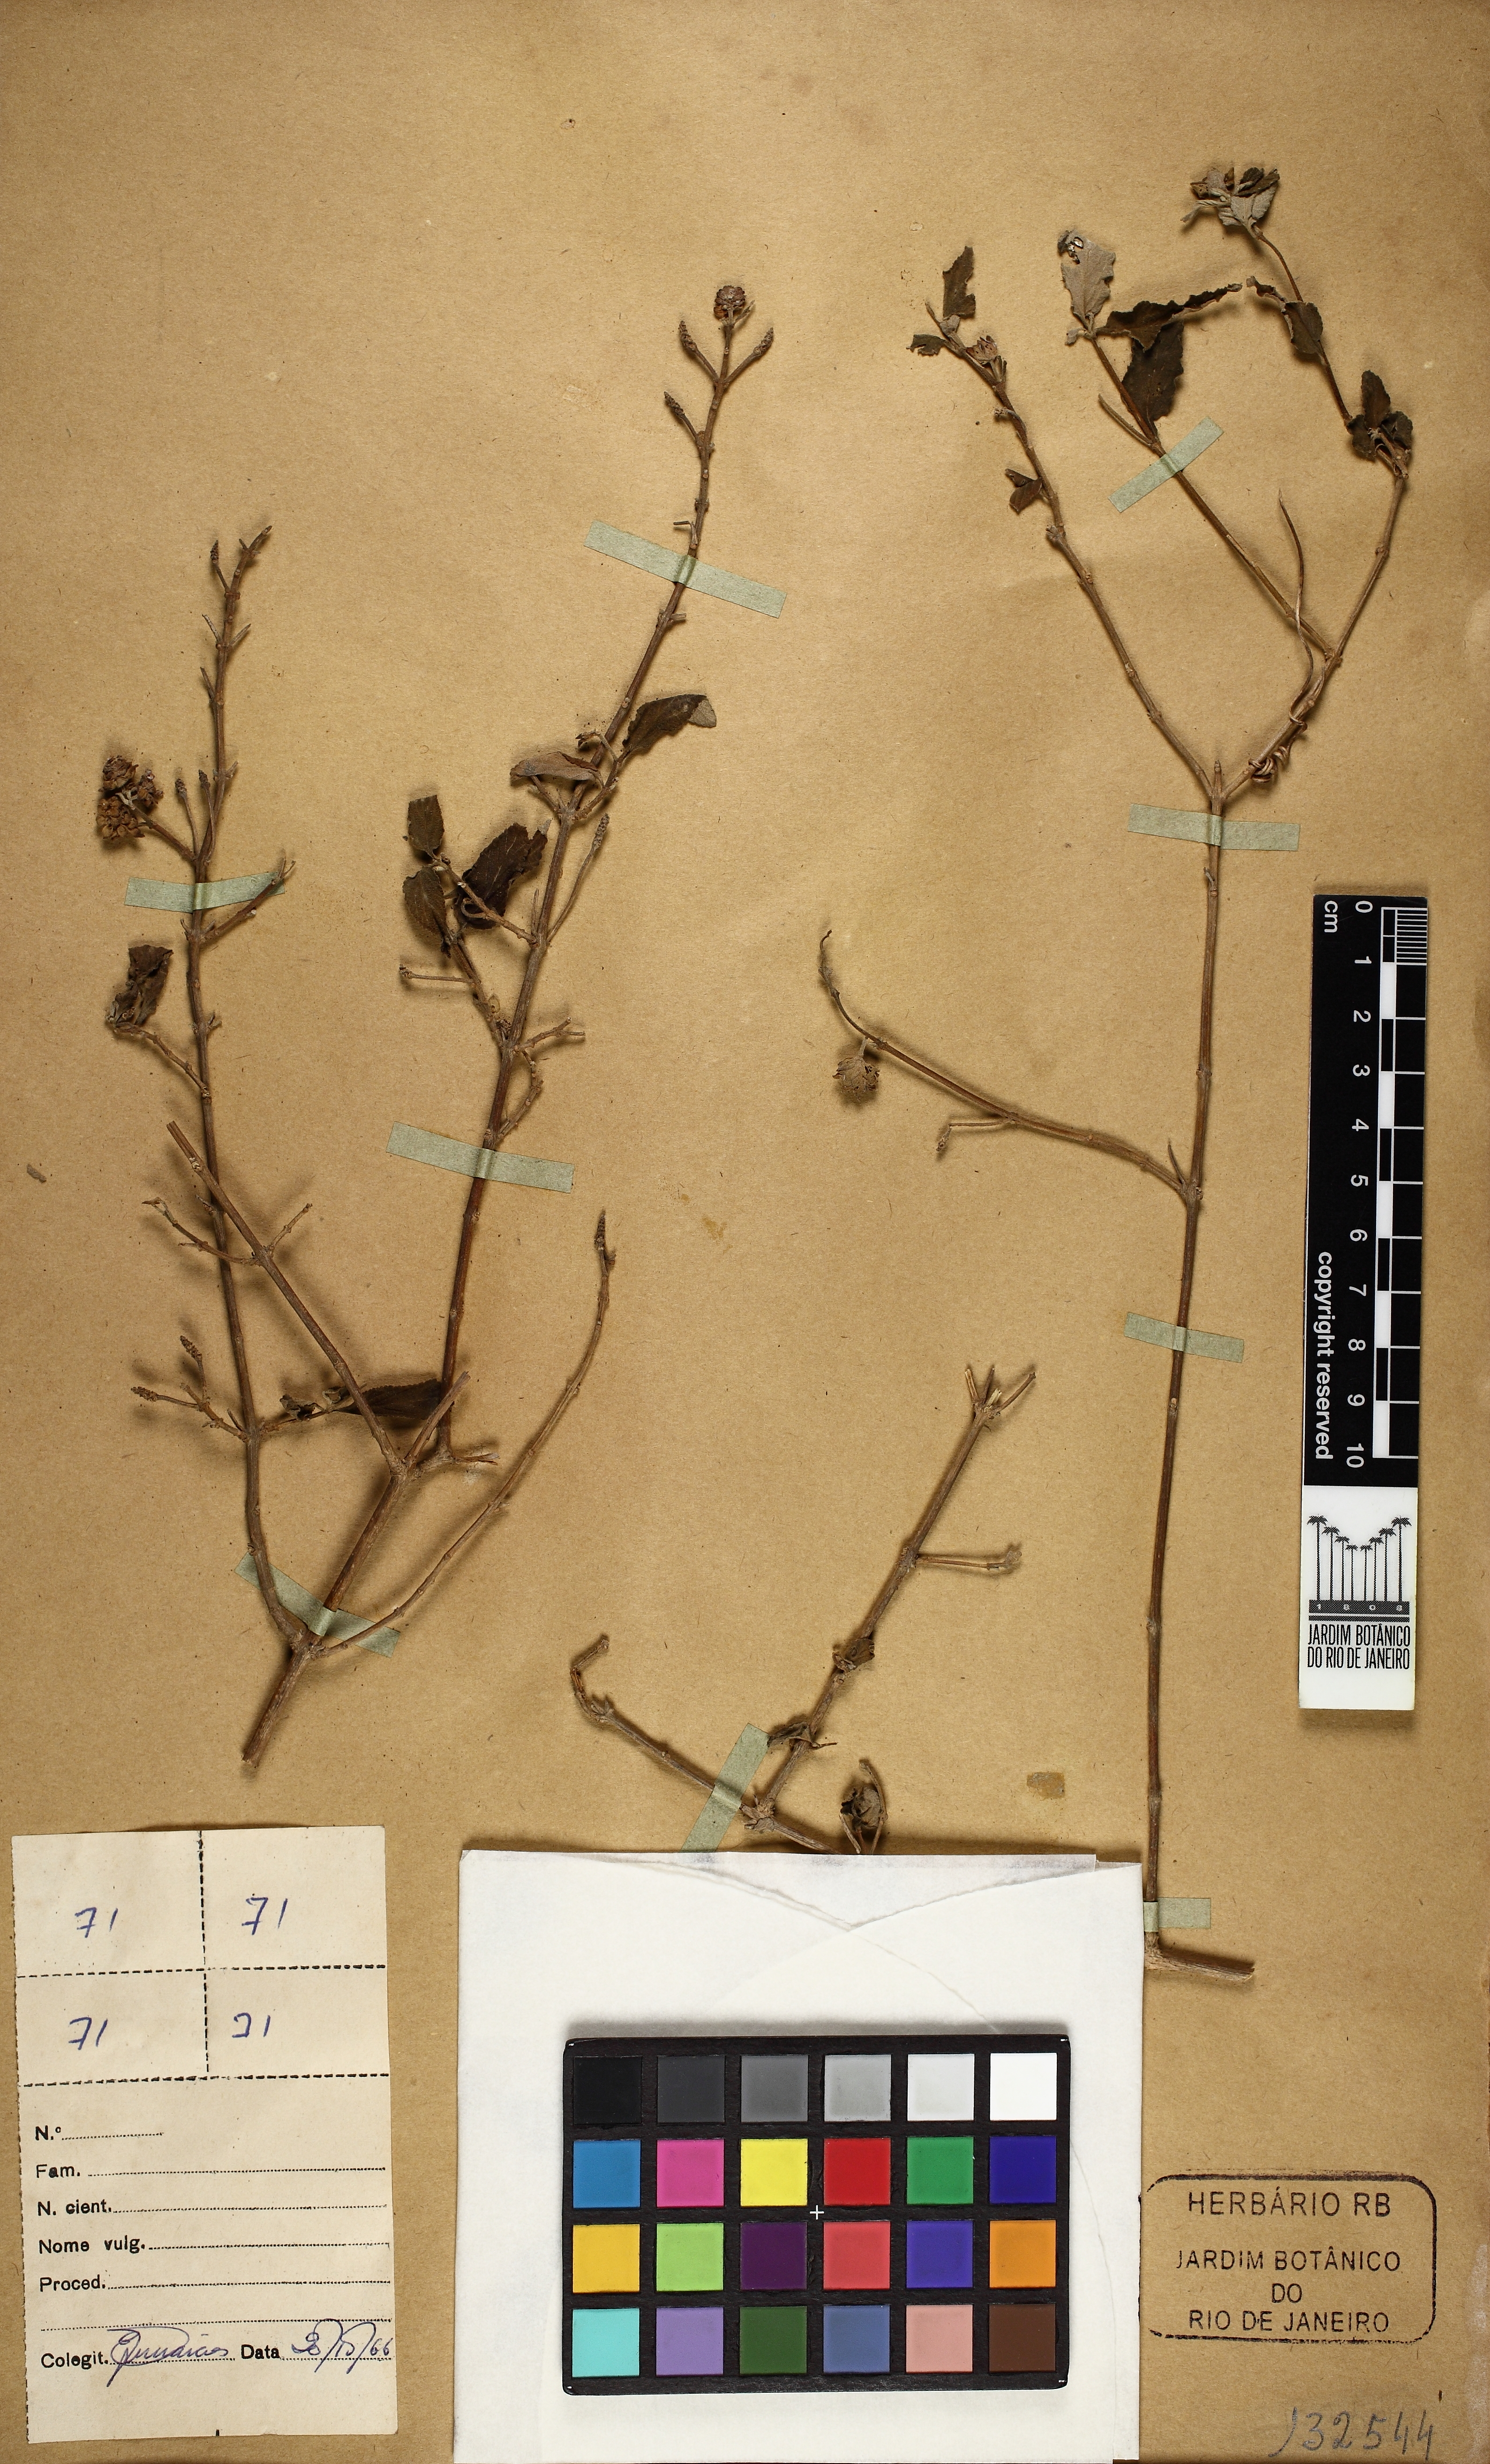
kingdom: Plantae
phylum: Tracheophyta
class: Magnoliopsida
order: Lamiales
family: Verbenaceae
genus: Lantana
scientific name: Lantana
